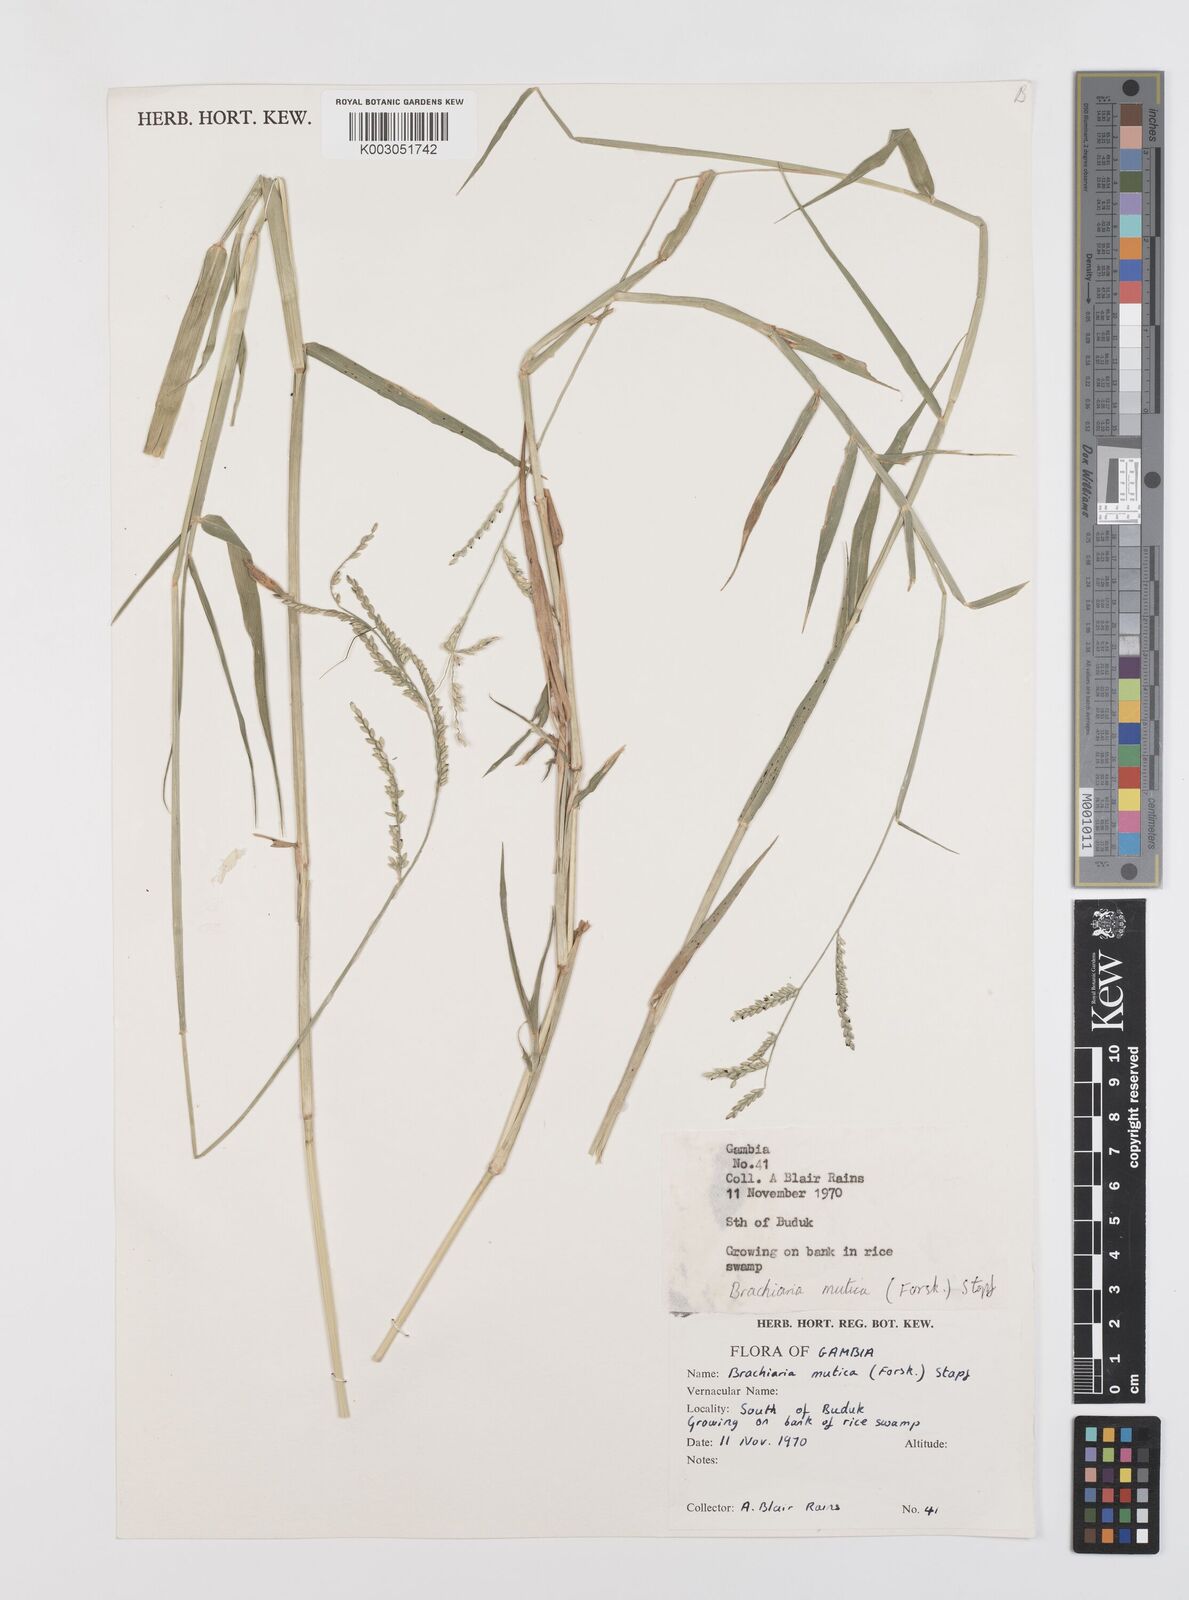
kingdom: Plantae
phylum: Tracheophyta
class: Liliopsida
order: Poales
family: Poaceae
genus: Urochloa
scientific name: Urochloa mutica
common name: Para grass
